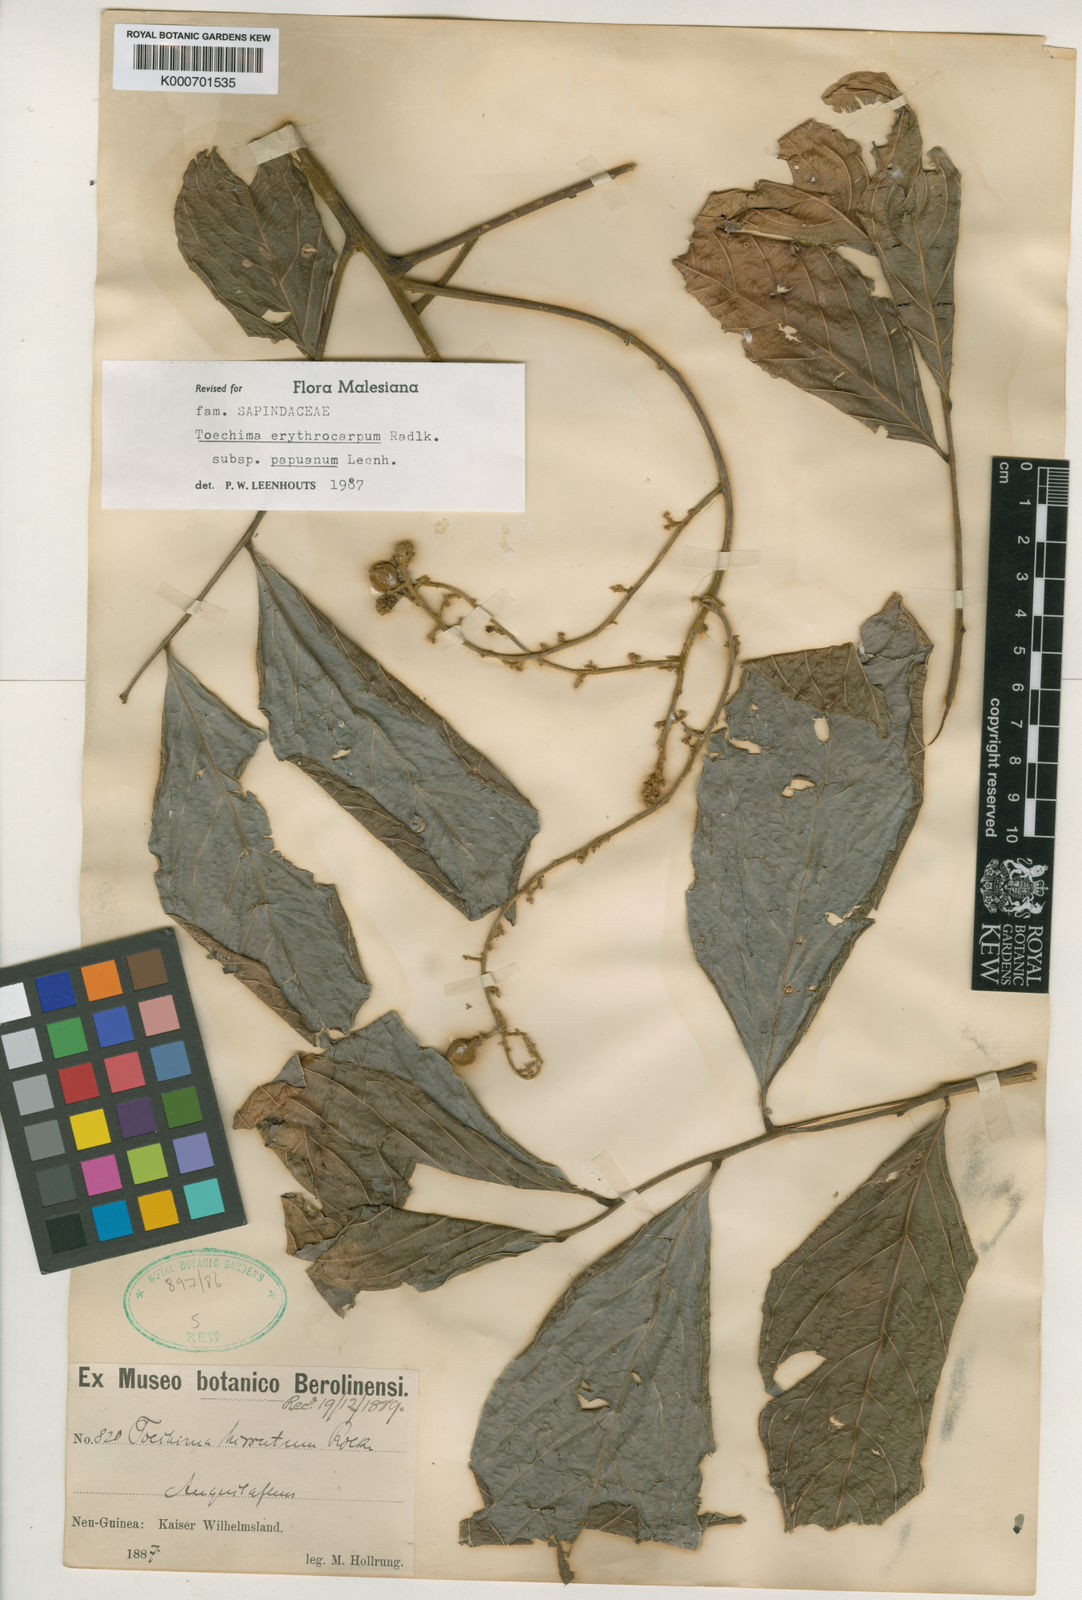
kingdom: Plantae
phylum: Tracheophyta
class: Magnoliopsida
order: Sapindales
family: Sapindaceae
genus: Toechima
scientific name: Toechima erythrocarpum
